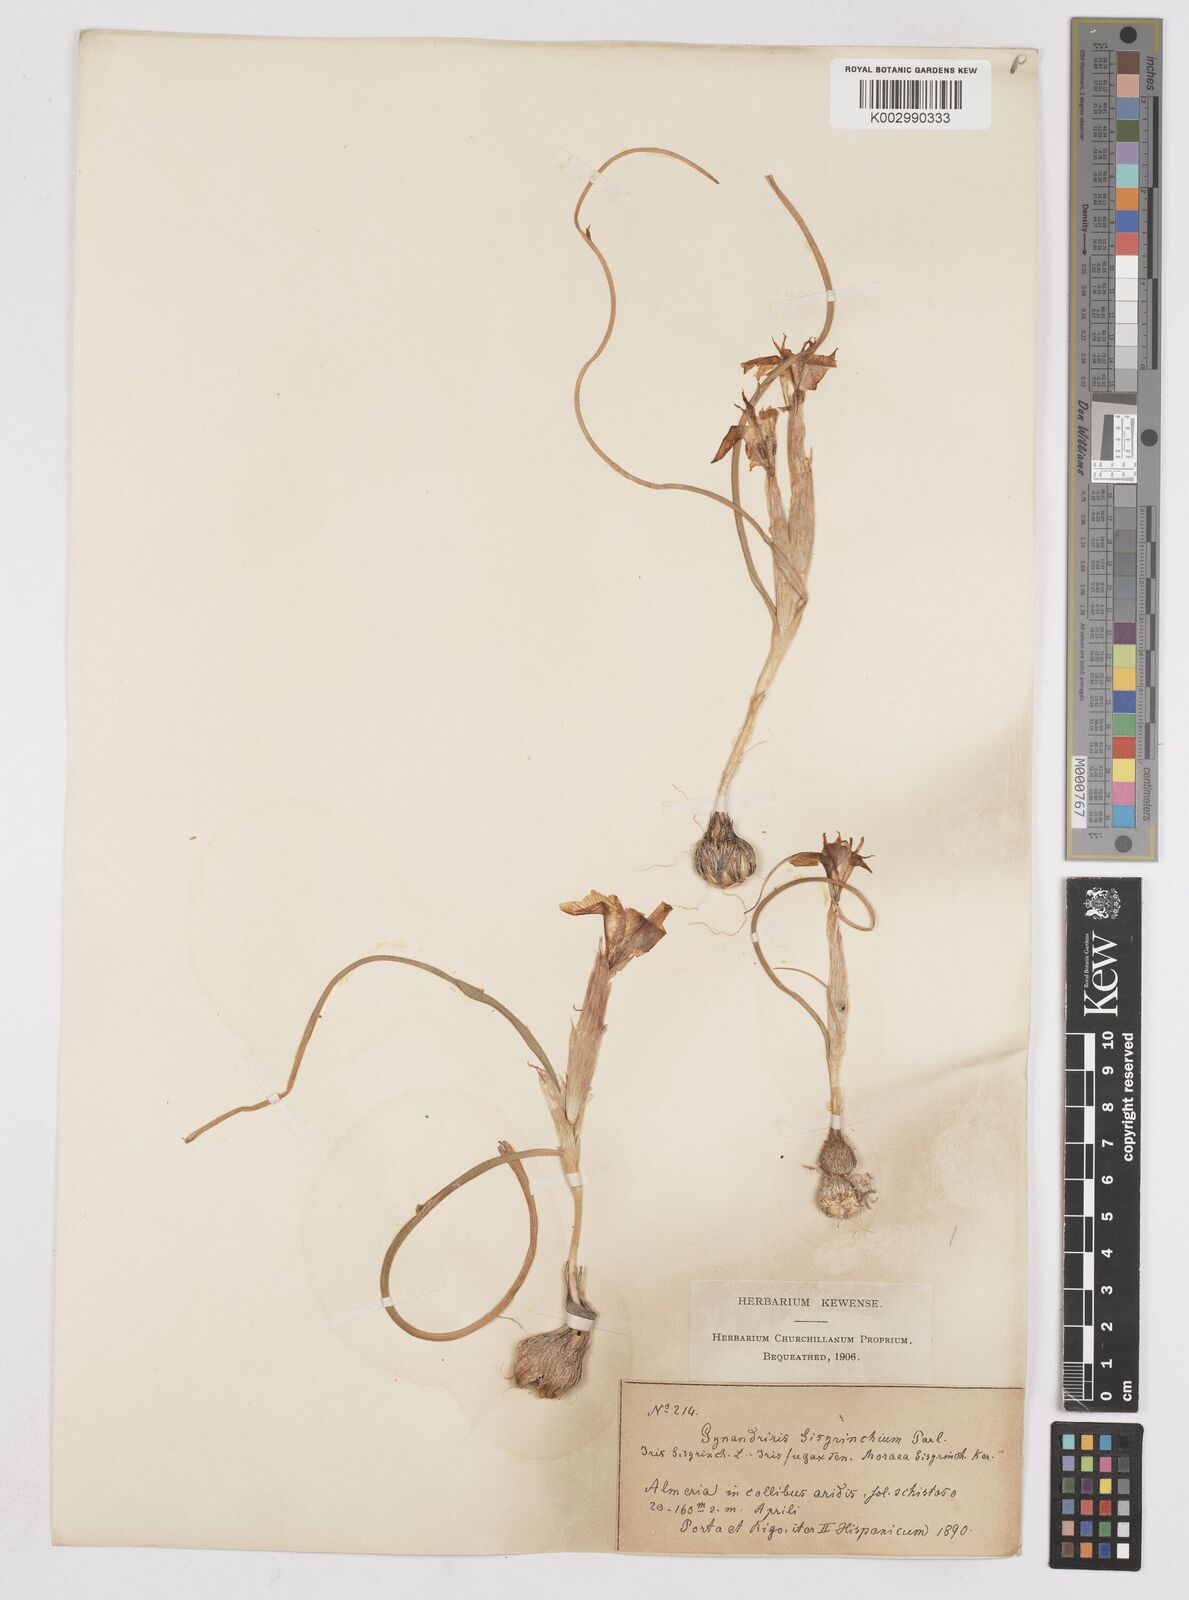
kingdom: Plantae
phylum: Tracheophyta
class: Liliopsida
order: Asparagales
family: Iridaceae
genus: Moraea
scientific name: Moraea sisyrinchium
